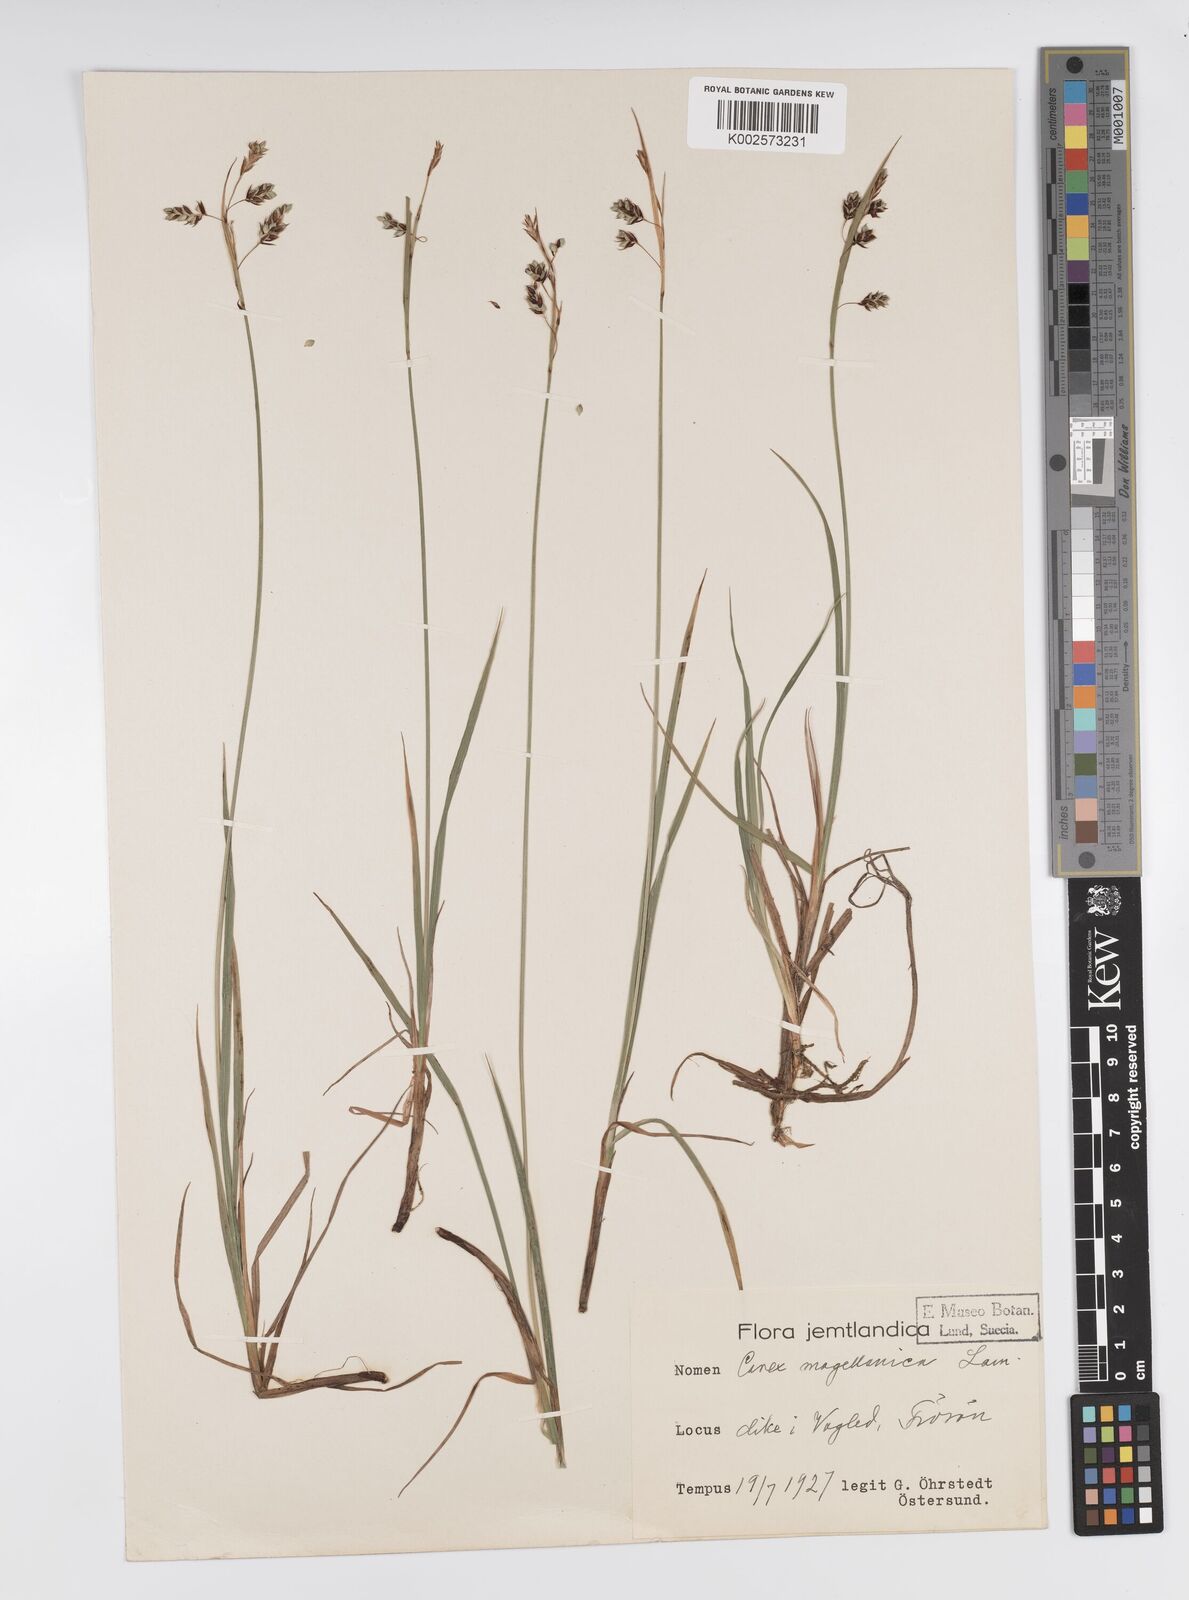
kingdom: Plantae
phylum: Tracheophyta
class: Liliopsida
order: Poales
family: Cyperaceae
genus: Carex
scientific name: Carex magellanica
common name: Bog sedge
